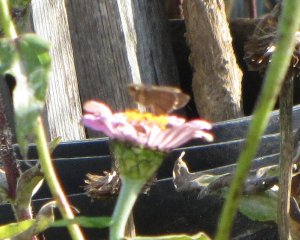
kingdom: Animalia
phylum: Arthropoda
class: Insecta
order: Lepidoptera
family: Hesperiidae
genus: Panoquina
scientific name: Panoquina ocola
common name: Ocola Skipper
